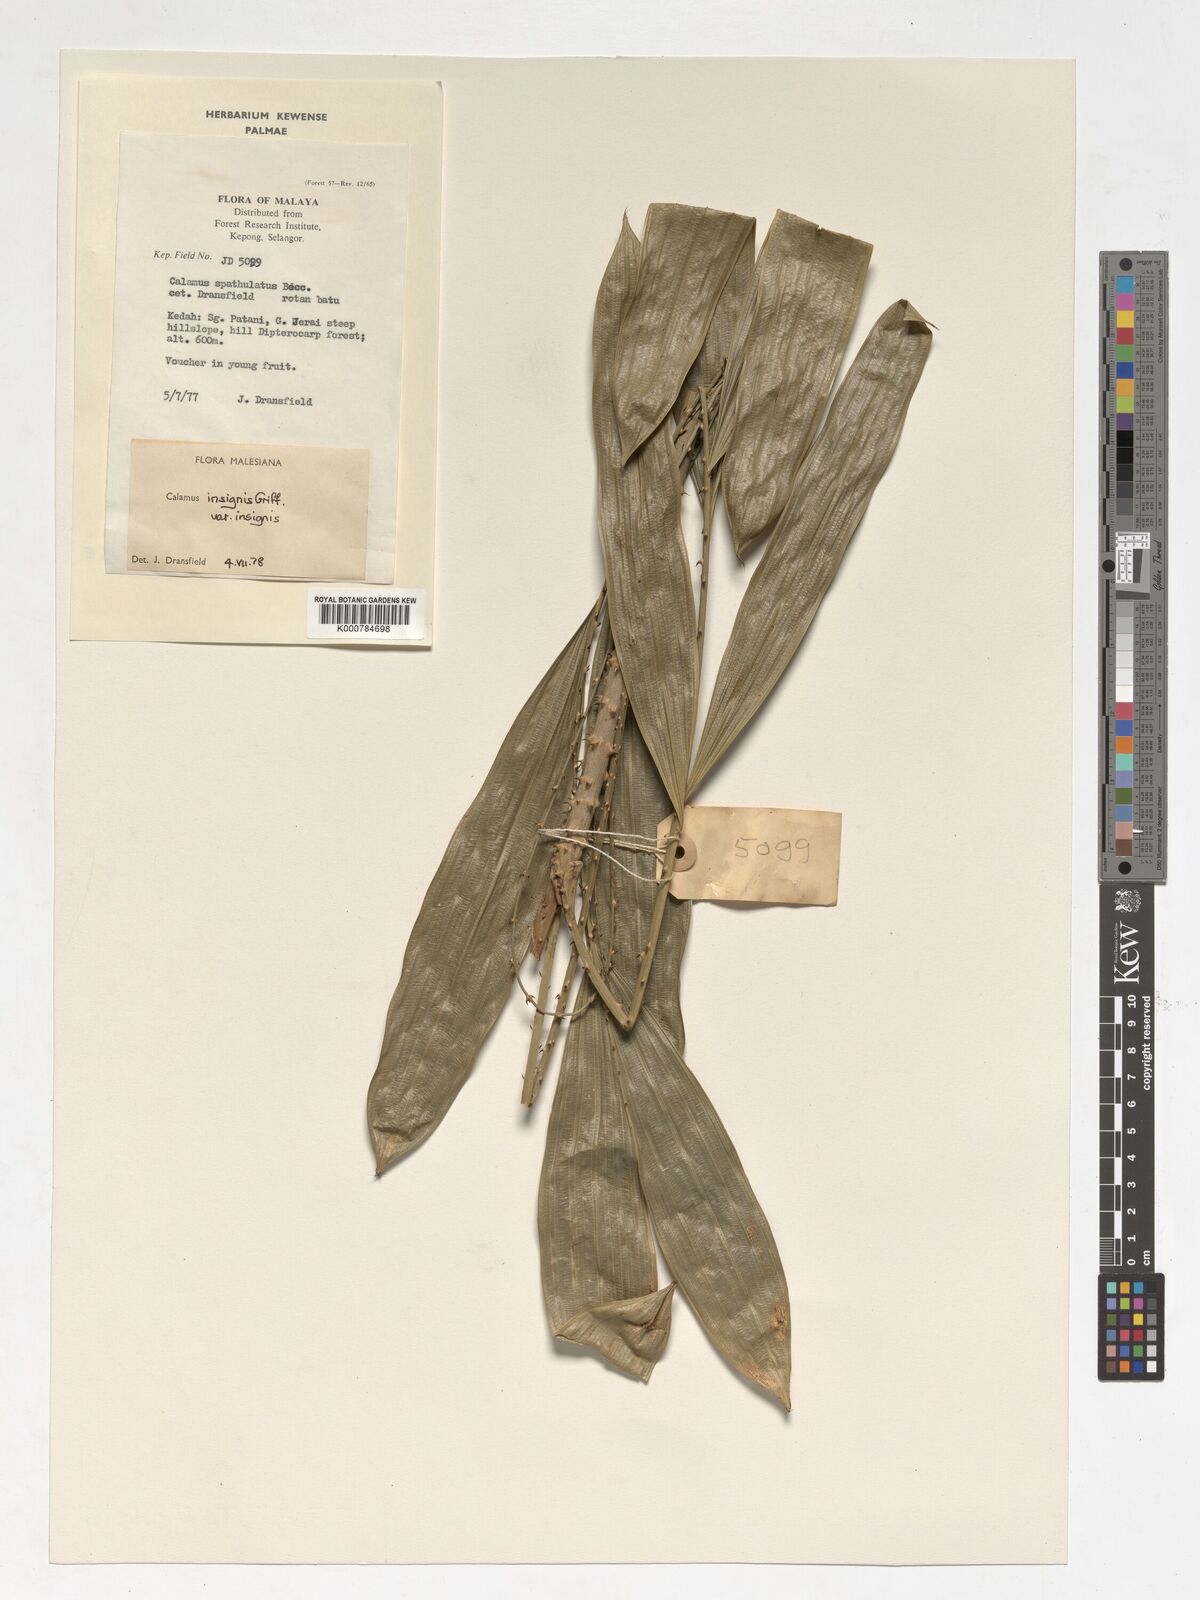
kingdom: Plantae
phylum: Tracheophyta
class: Liliopsida
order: Arecales
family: Arecaceae
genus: Calamus
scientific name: Calamus insignis
